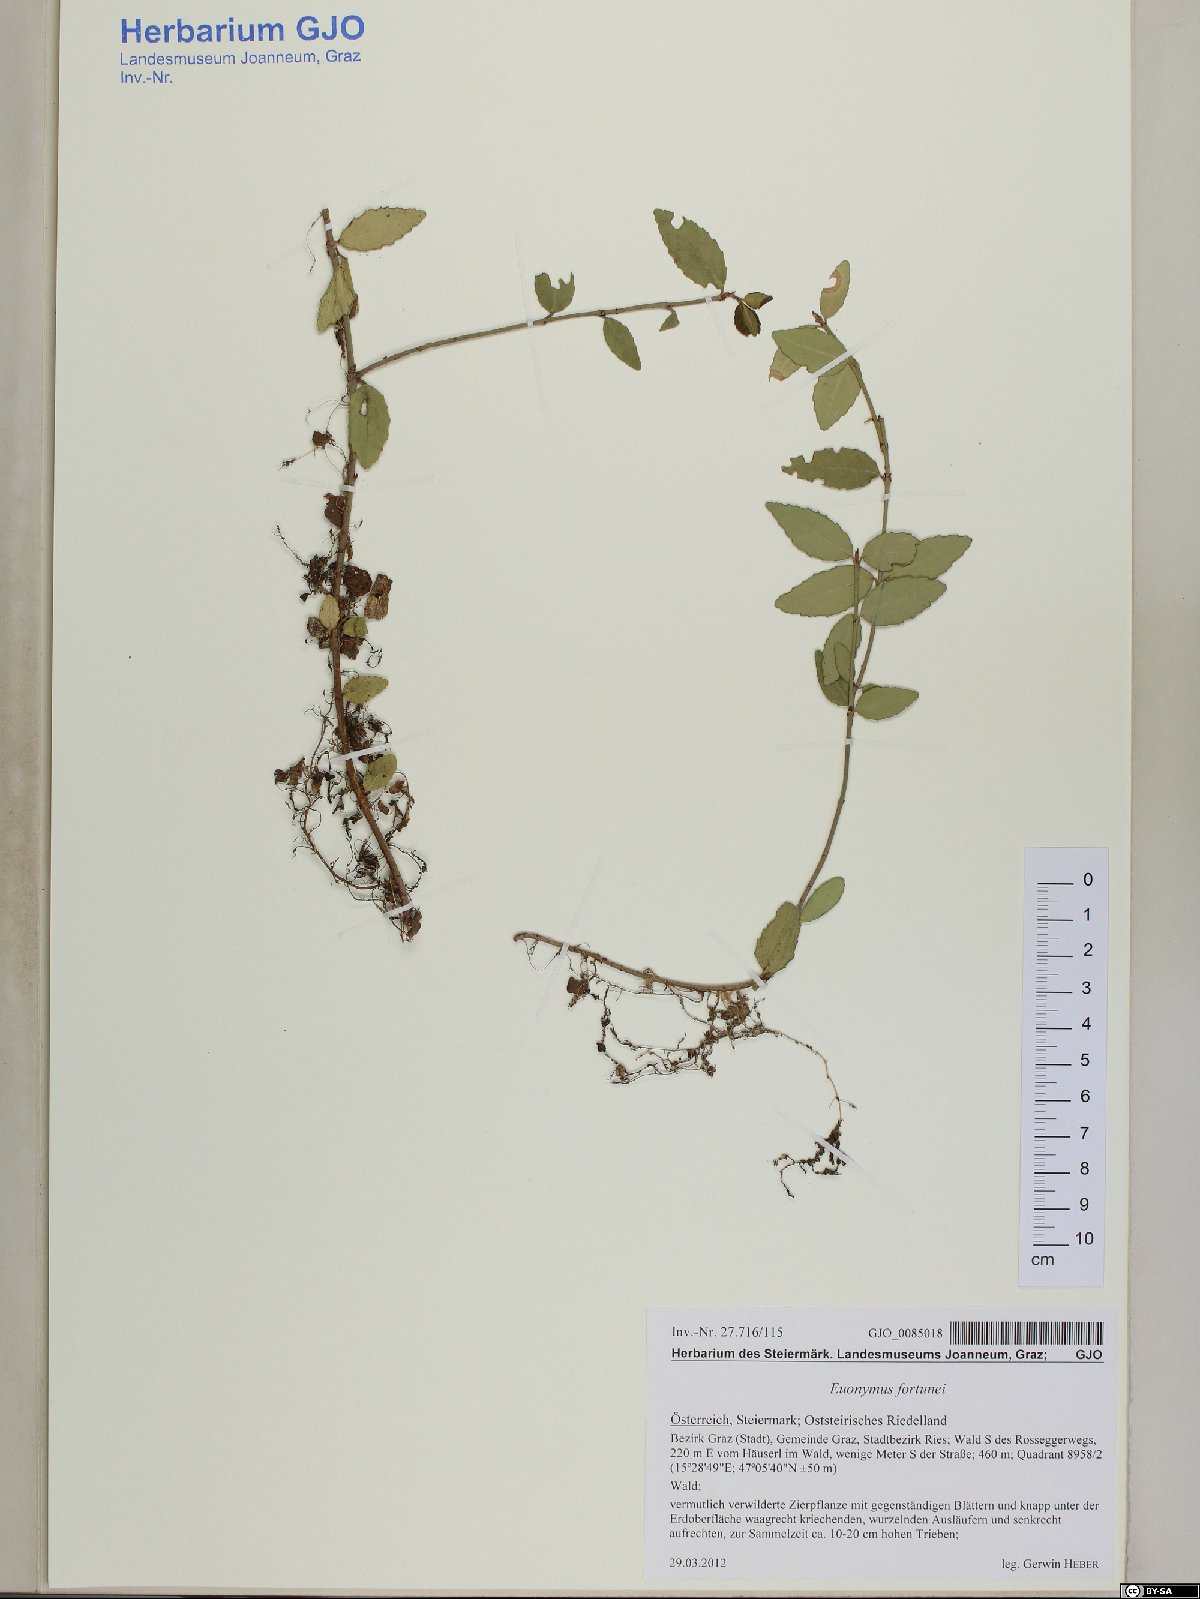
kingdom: Plantae
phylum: Tracheophyta
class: Magnoliopsida
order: Celastrales
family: Celastraceae
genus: Euonymus
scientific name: Euonymus fortunei
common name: Climbing euonymus
